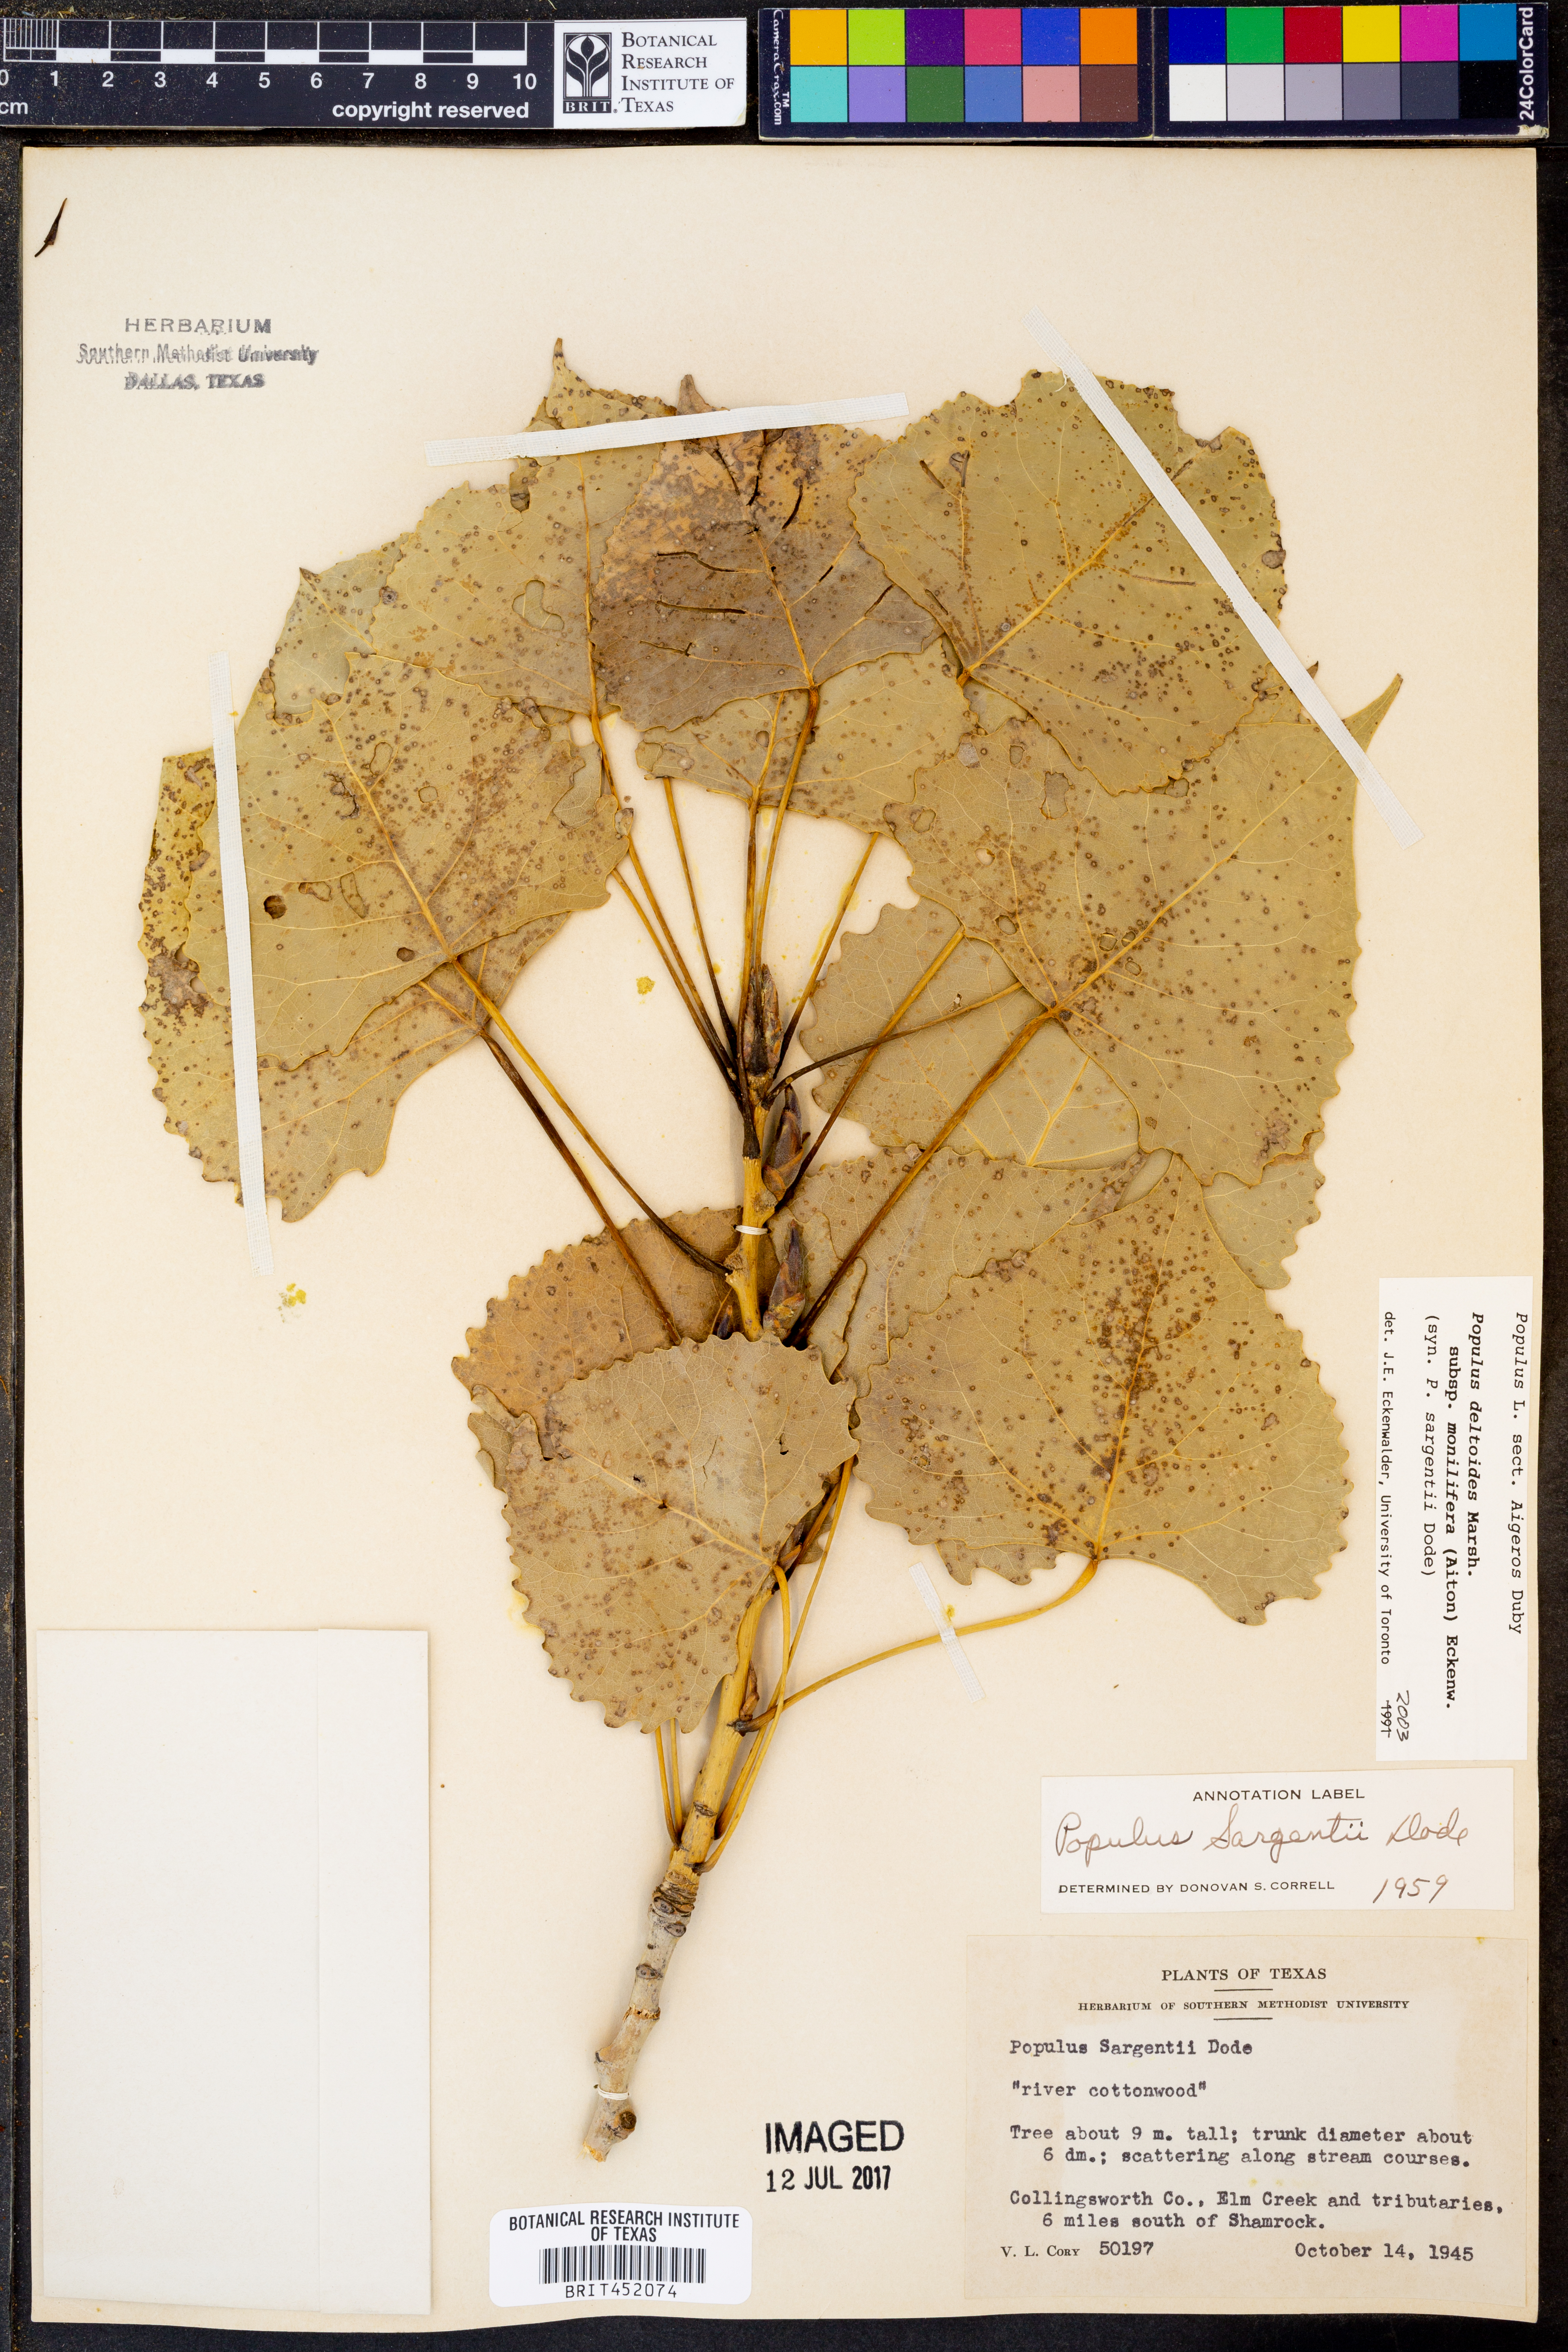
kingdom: Plantae
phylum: Tracheophyta
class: Magnoliopsida
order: Malpighiales
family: Salicaceae
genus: Populus
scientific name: Populus deltoides
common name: Eastern cottonwood
